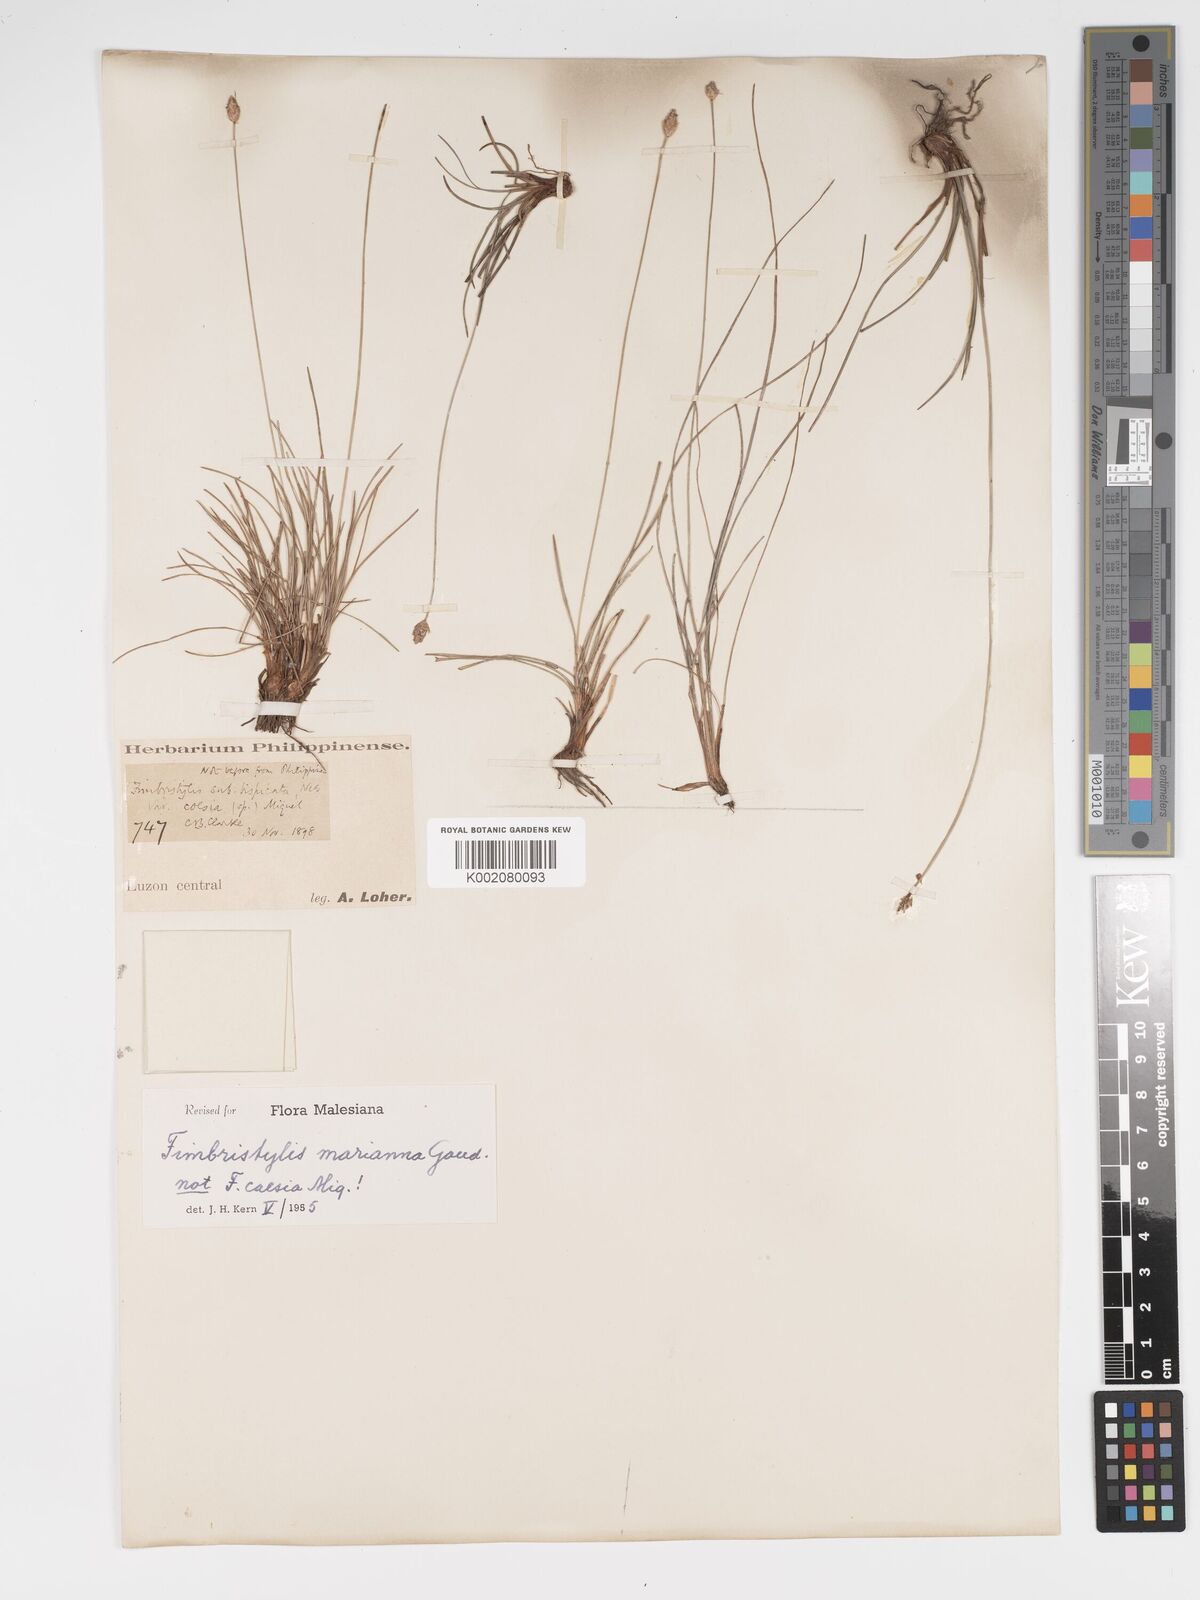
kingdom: Plantae
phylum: Tracheophyta
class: Liliopsida
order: Poales
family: Cyperaceae
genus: Fimbristylis
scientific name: Fimbristylis tristachya
